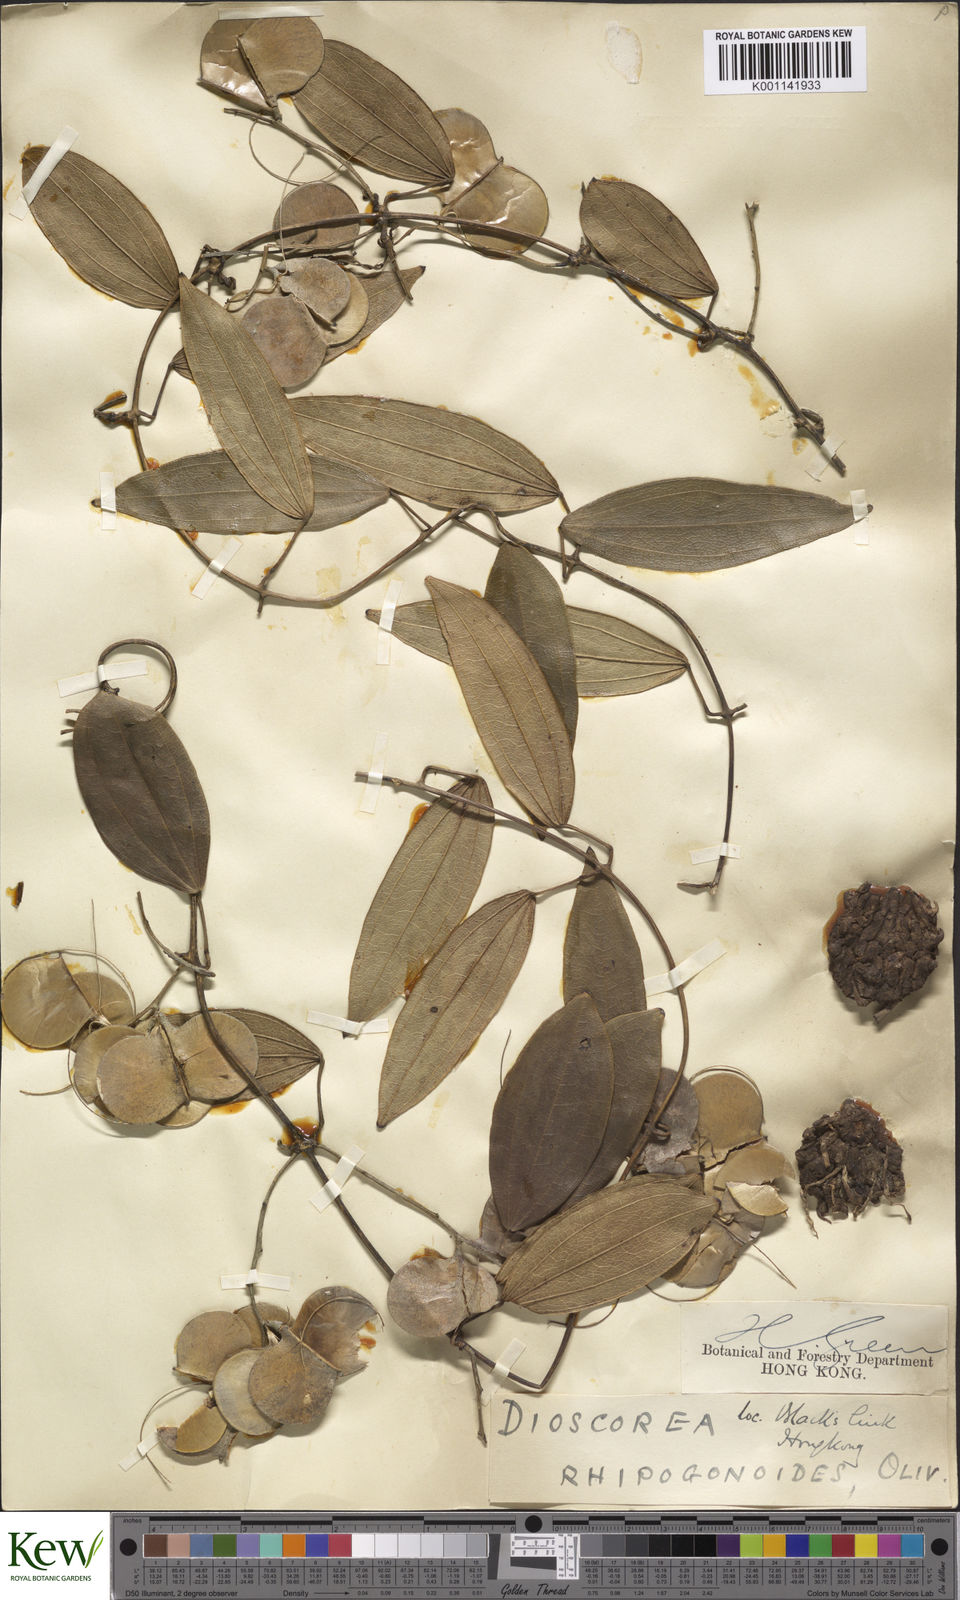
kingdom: Plantae
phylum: Tracheophyta
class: Liliopsida
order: Dioscoreales
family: Dioscoreaceae
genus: Dioscorea
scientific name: Dioscorea
